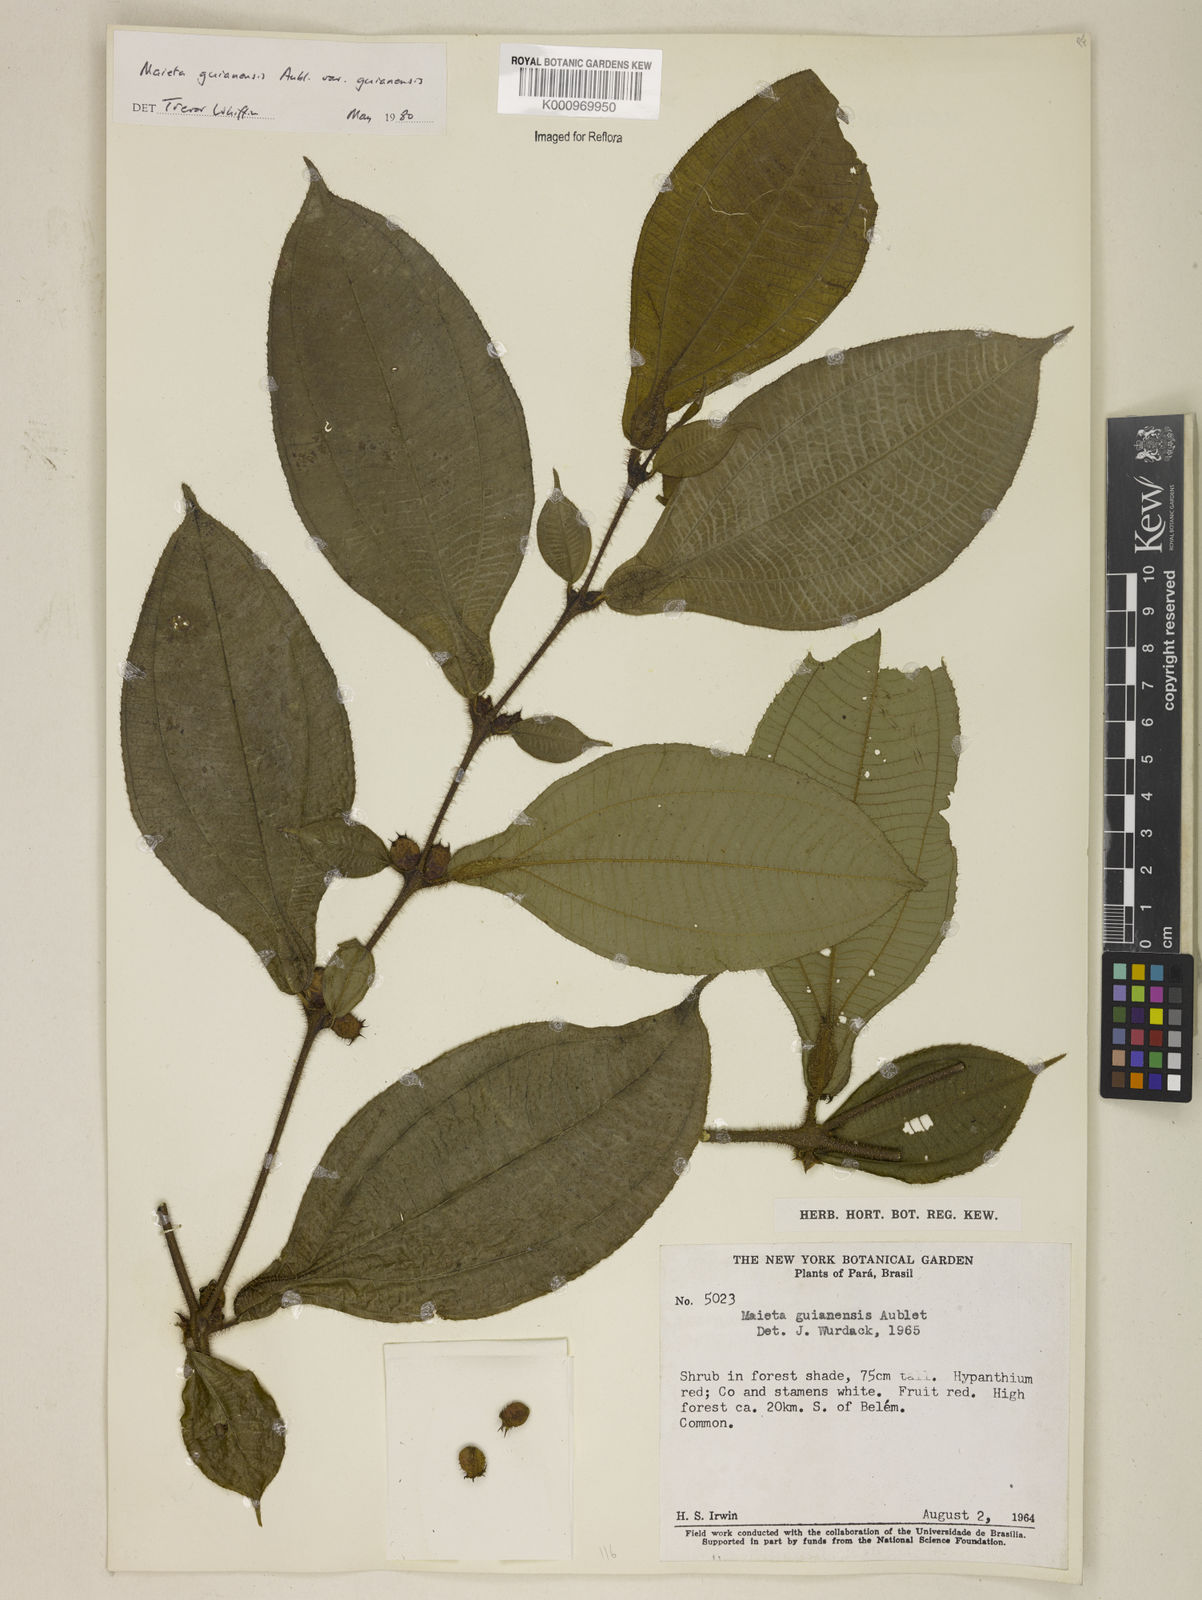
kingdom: Plantae
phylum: Tracheophyta
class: Magnoliopsida
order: Myrtales
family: Melastomataceae
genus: Miconia
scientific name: Miconia mayeta
